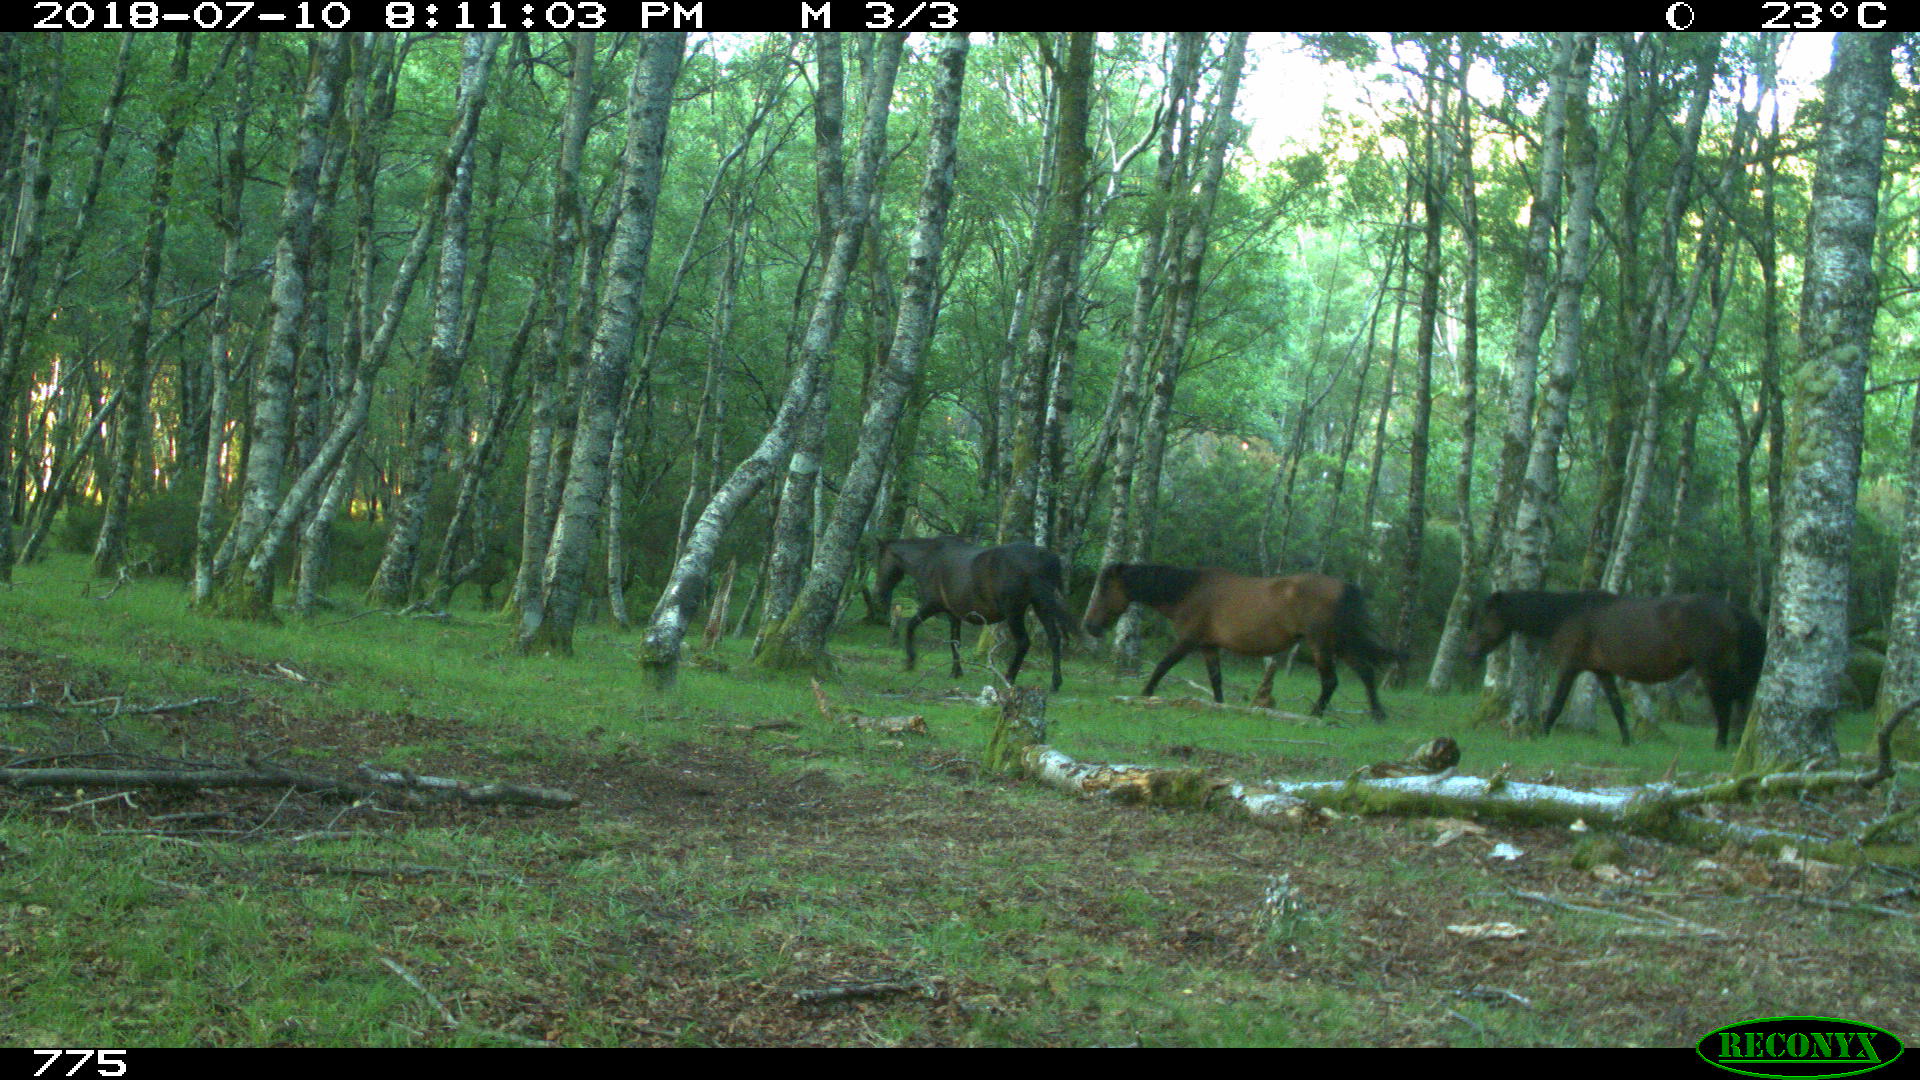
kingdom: Animalia
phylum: Chordata
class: Mammalia
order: Perissodactyla
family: Equidae
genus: Equus
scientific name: Equus caballus
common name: Horse
